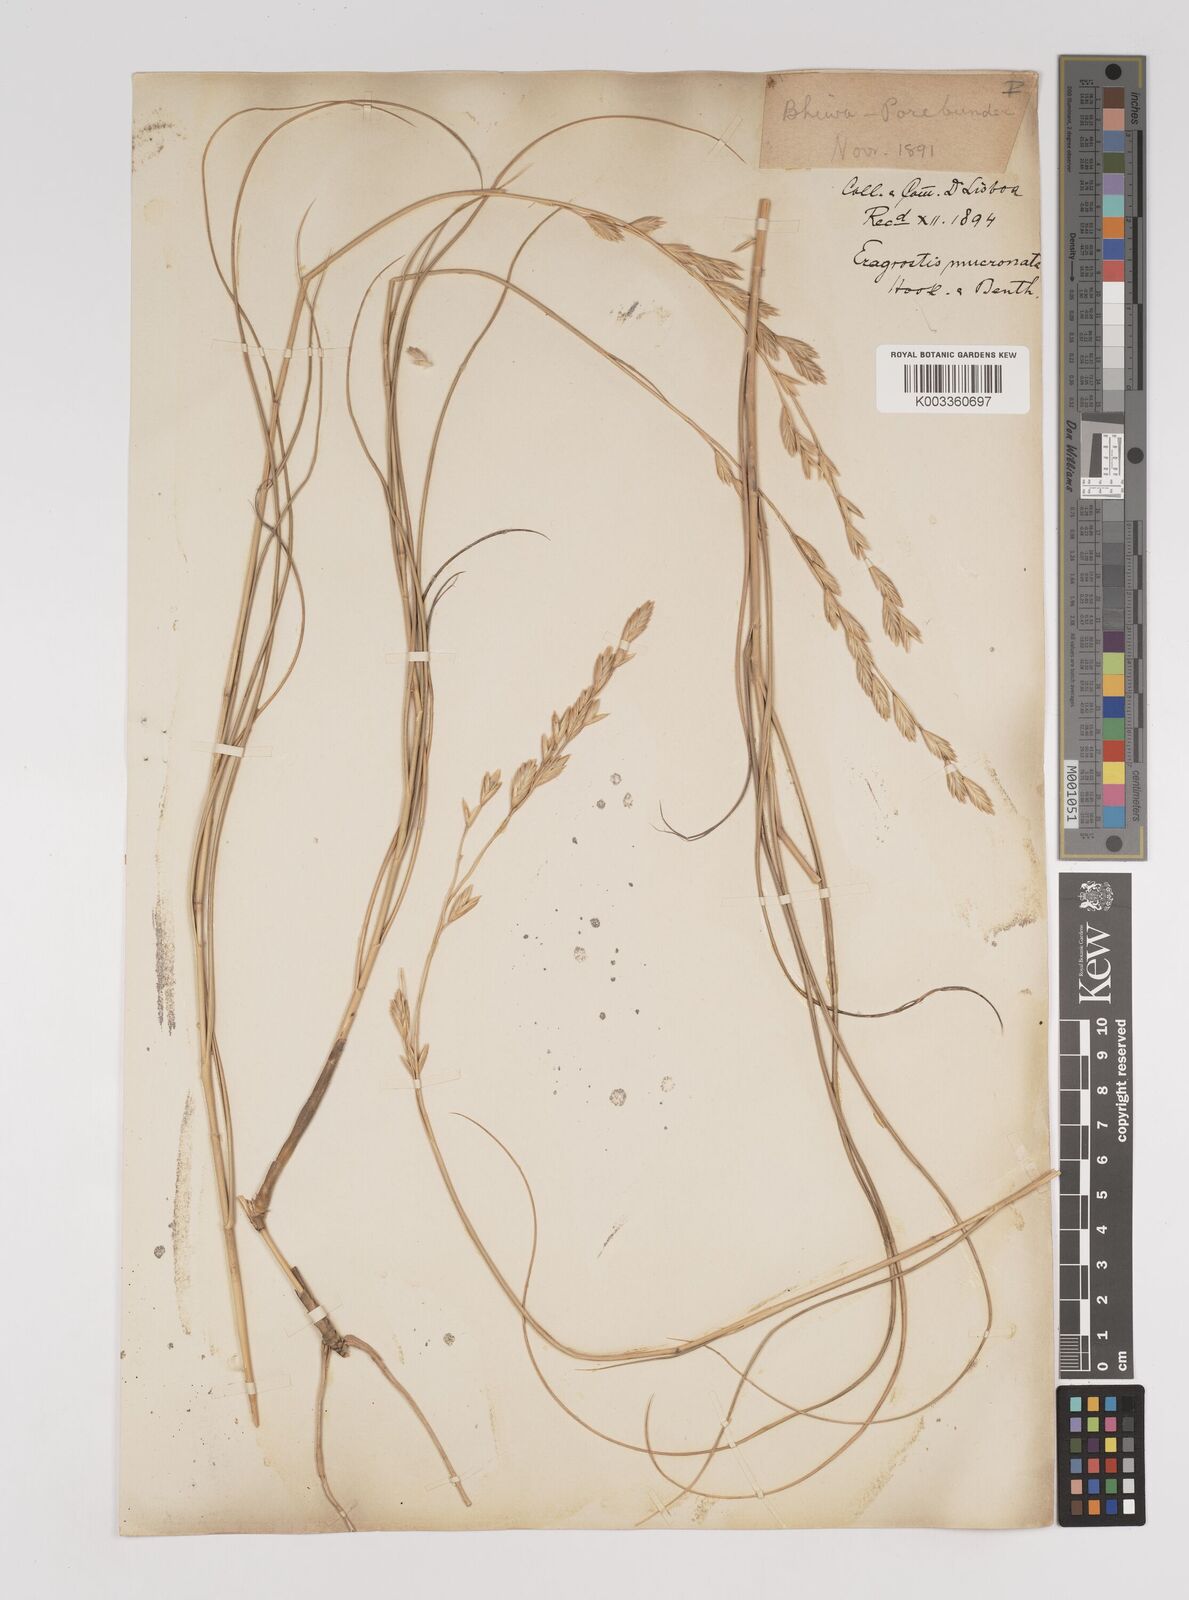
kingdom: Plantae
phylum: Tracheophyta
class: Liliopsida
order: Poales
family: Poaceae
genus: Halopyrum
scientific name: Halopyrum mucronatum
